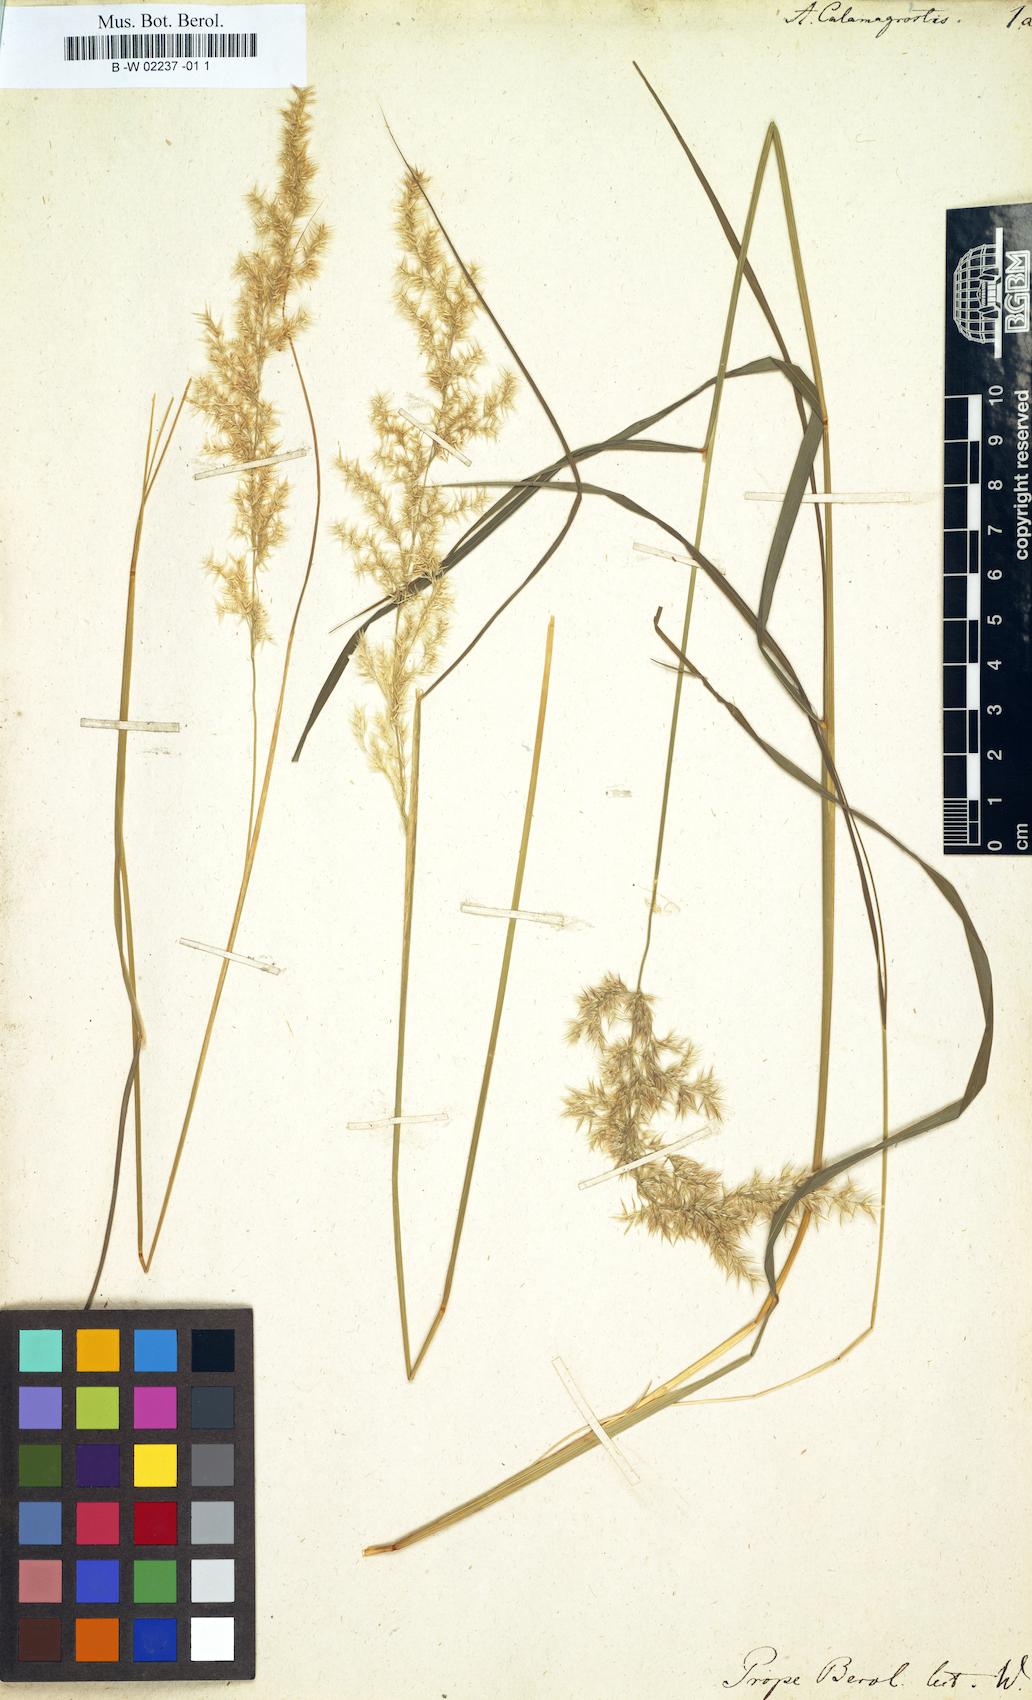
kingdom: Plantae
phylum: Tracheophyta
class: Liliopsida
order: Poales
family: Poaceae
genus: Arundo
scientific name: Arundo calamagrostis
